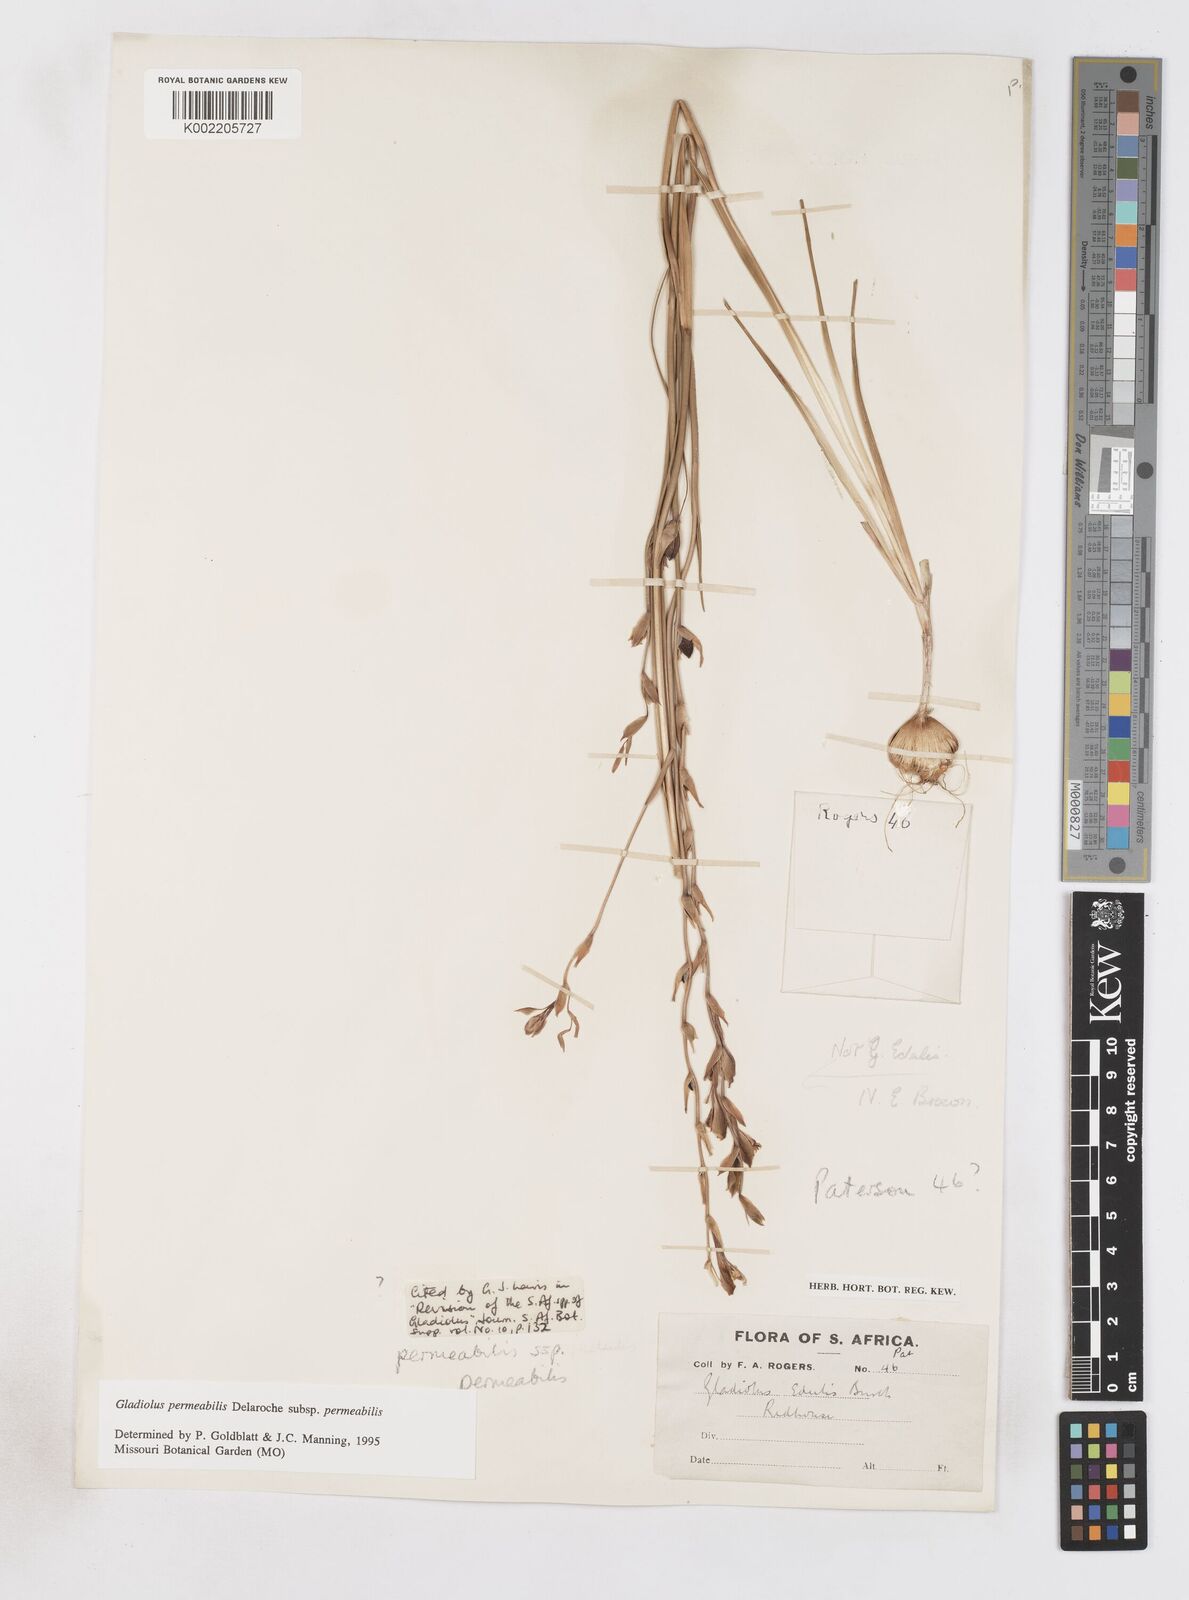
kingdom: Plantae
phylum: Tracheophyta
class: Liliopsida
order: Asparagales
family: Iridaceae
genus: Gladiolus
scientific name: Gladiolus permeabilis
